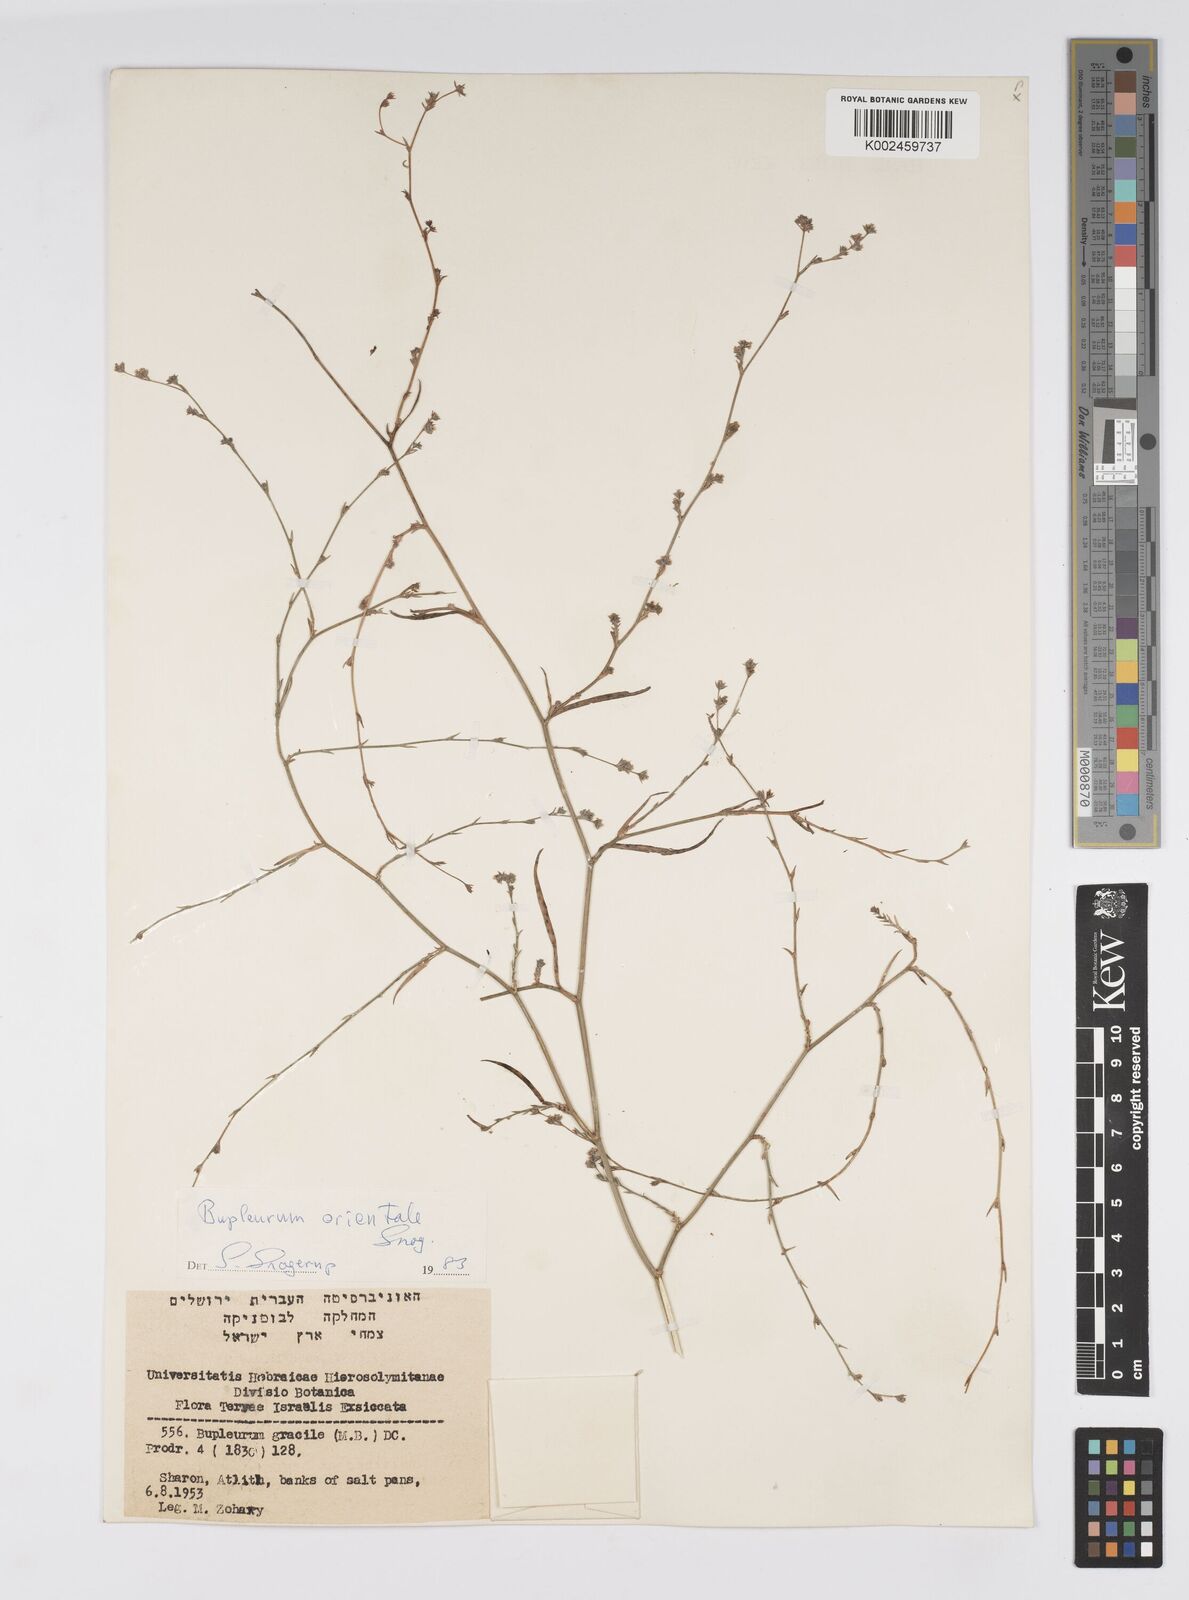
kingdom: Plantae
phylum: Tracheophyta
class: Magnoliopsida
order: Apiales
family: Apiaceae
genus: Bupleurum
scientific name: Bupleurum orientale
